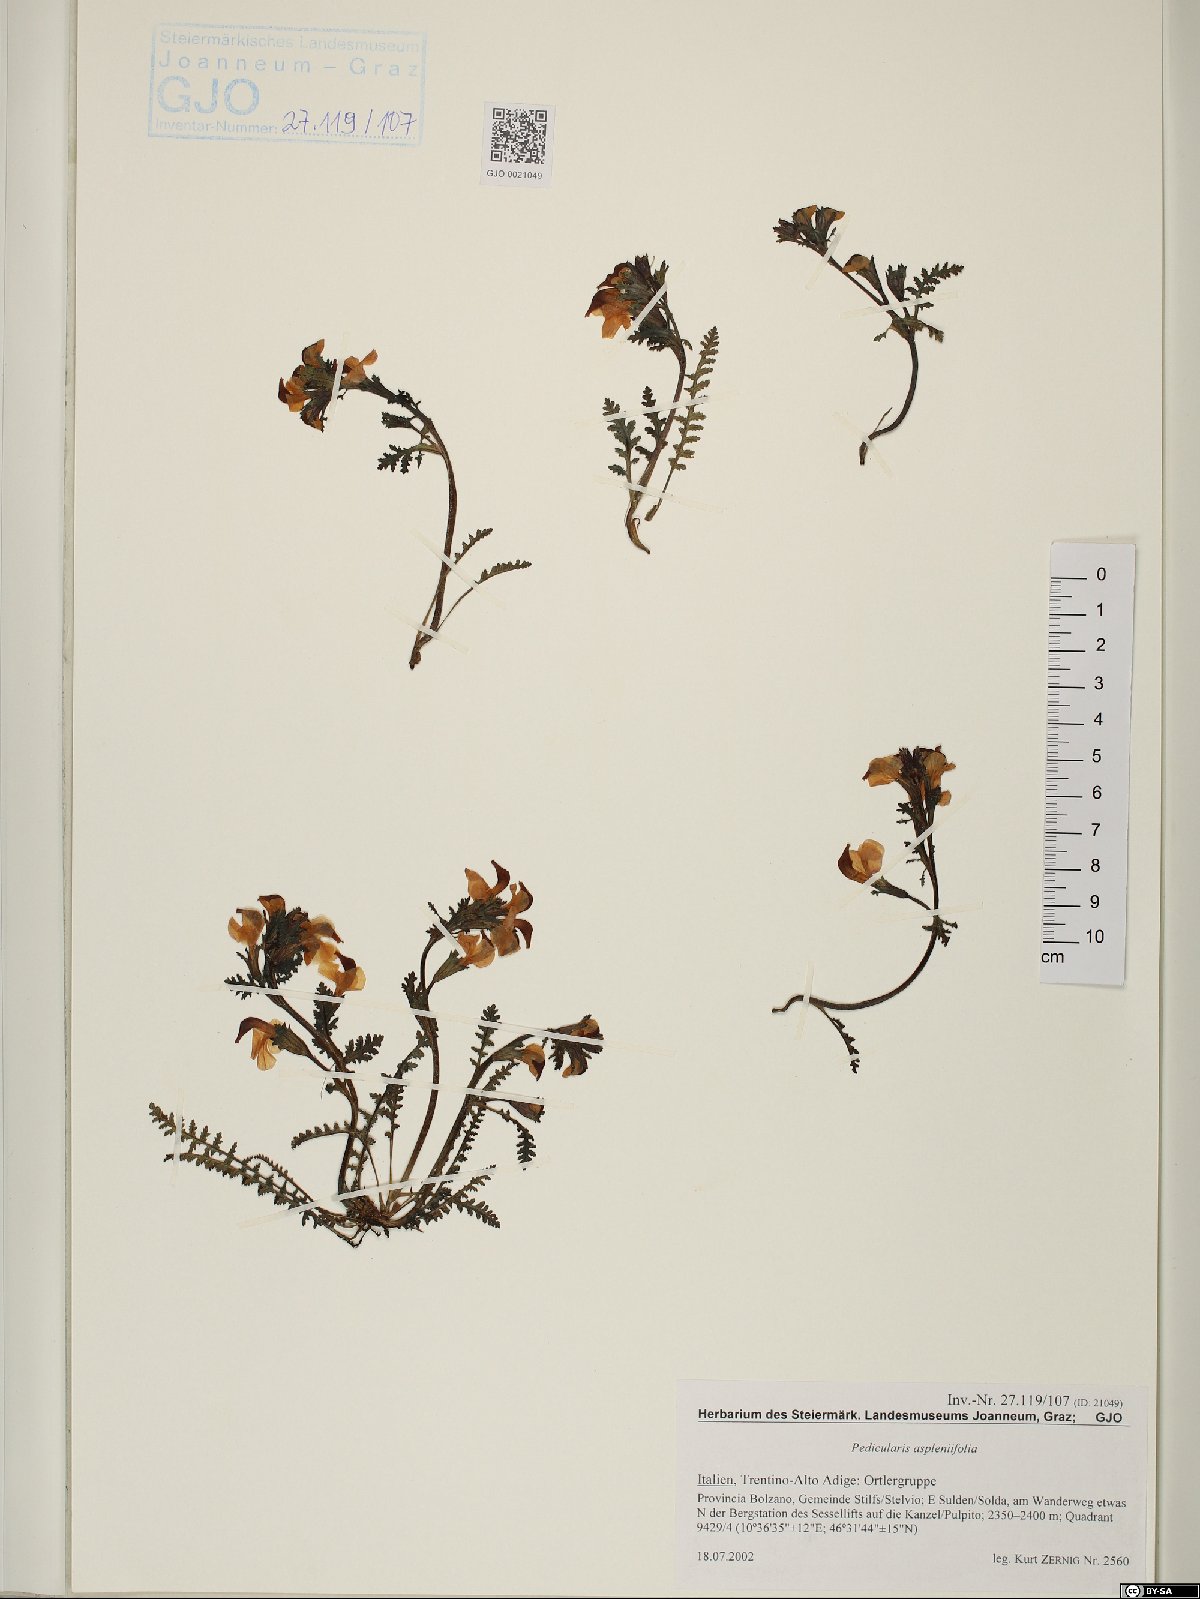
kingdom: Plantae
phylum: Tracheophyta
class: Magnoliopsida
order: Lamiales
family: Orobanchaceae
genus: Pedicularis
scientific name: Pedicularis asplenifolia
